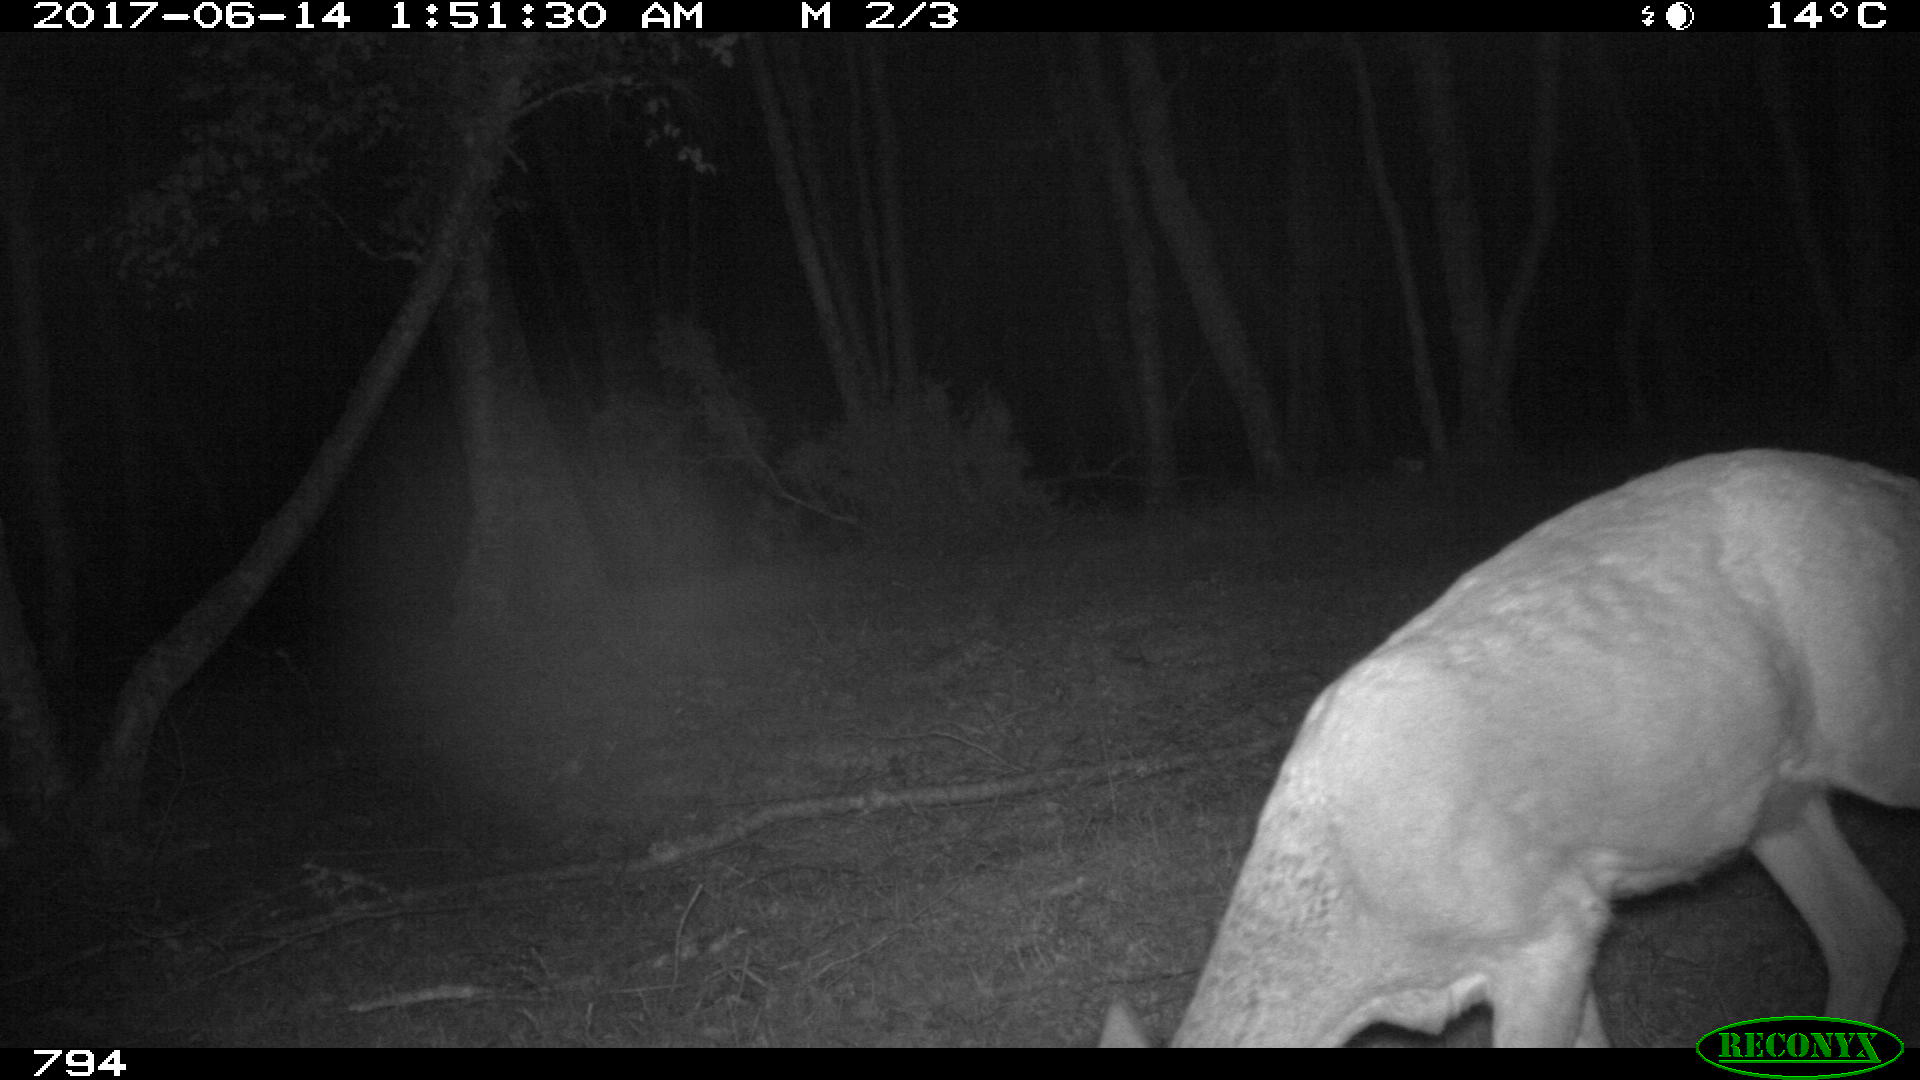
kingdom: Animalia
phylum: Chordata
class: Mammalia
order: Artiodactyla
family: Cervidae
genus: Capreolus
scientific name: Capreolus capreolus
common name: Western roe deer
